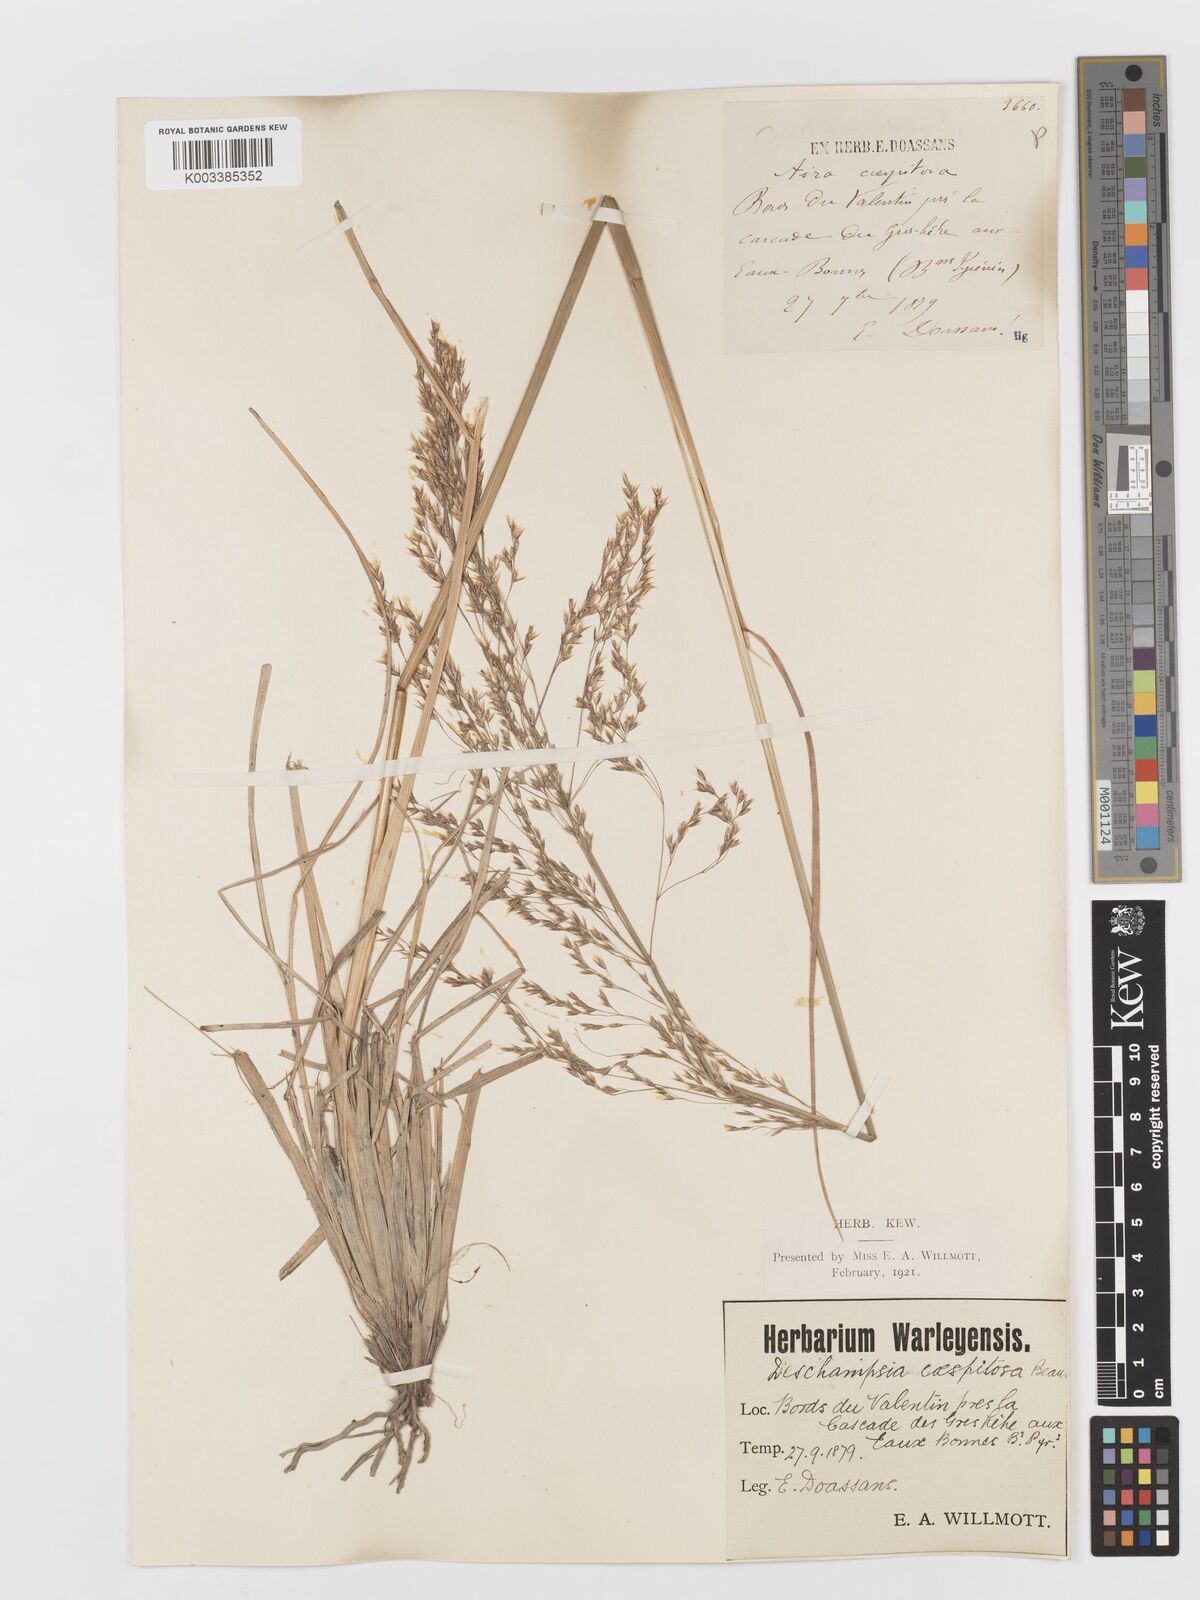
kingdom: Plantae
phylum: Tracheophyta
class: Liliopsida
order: Poales
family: Poaceae
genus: Deschampsia
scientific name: Deschampsia cespitosa
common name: Tufted hair-grass
